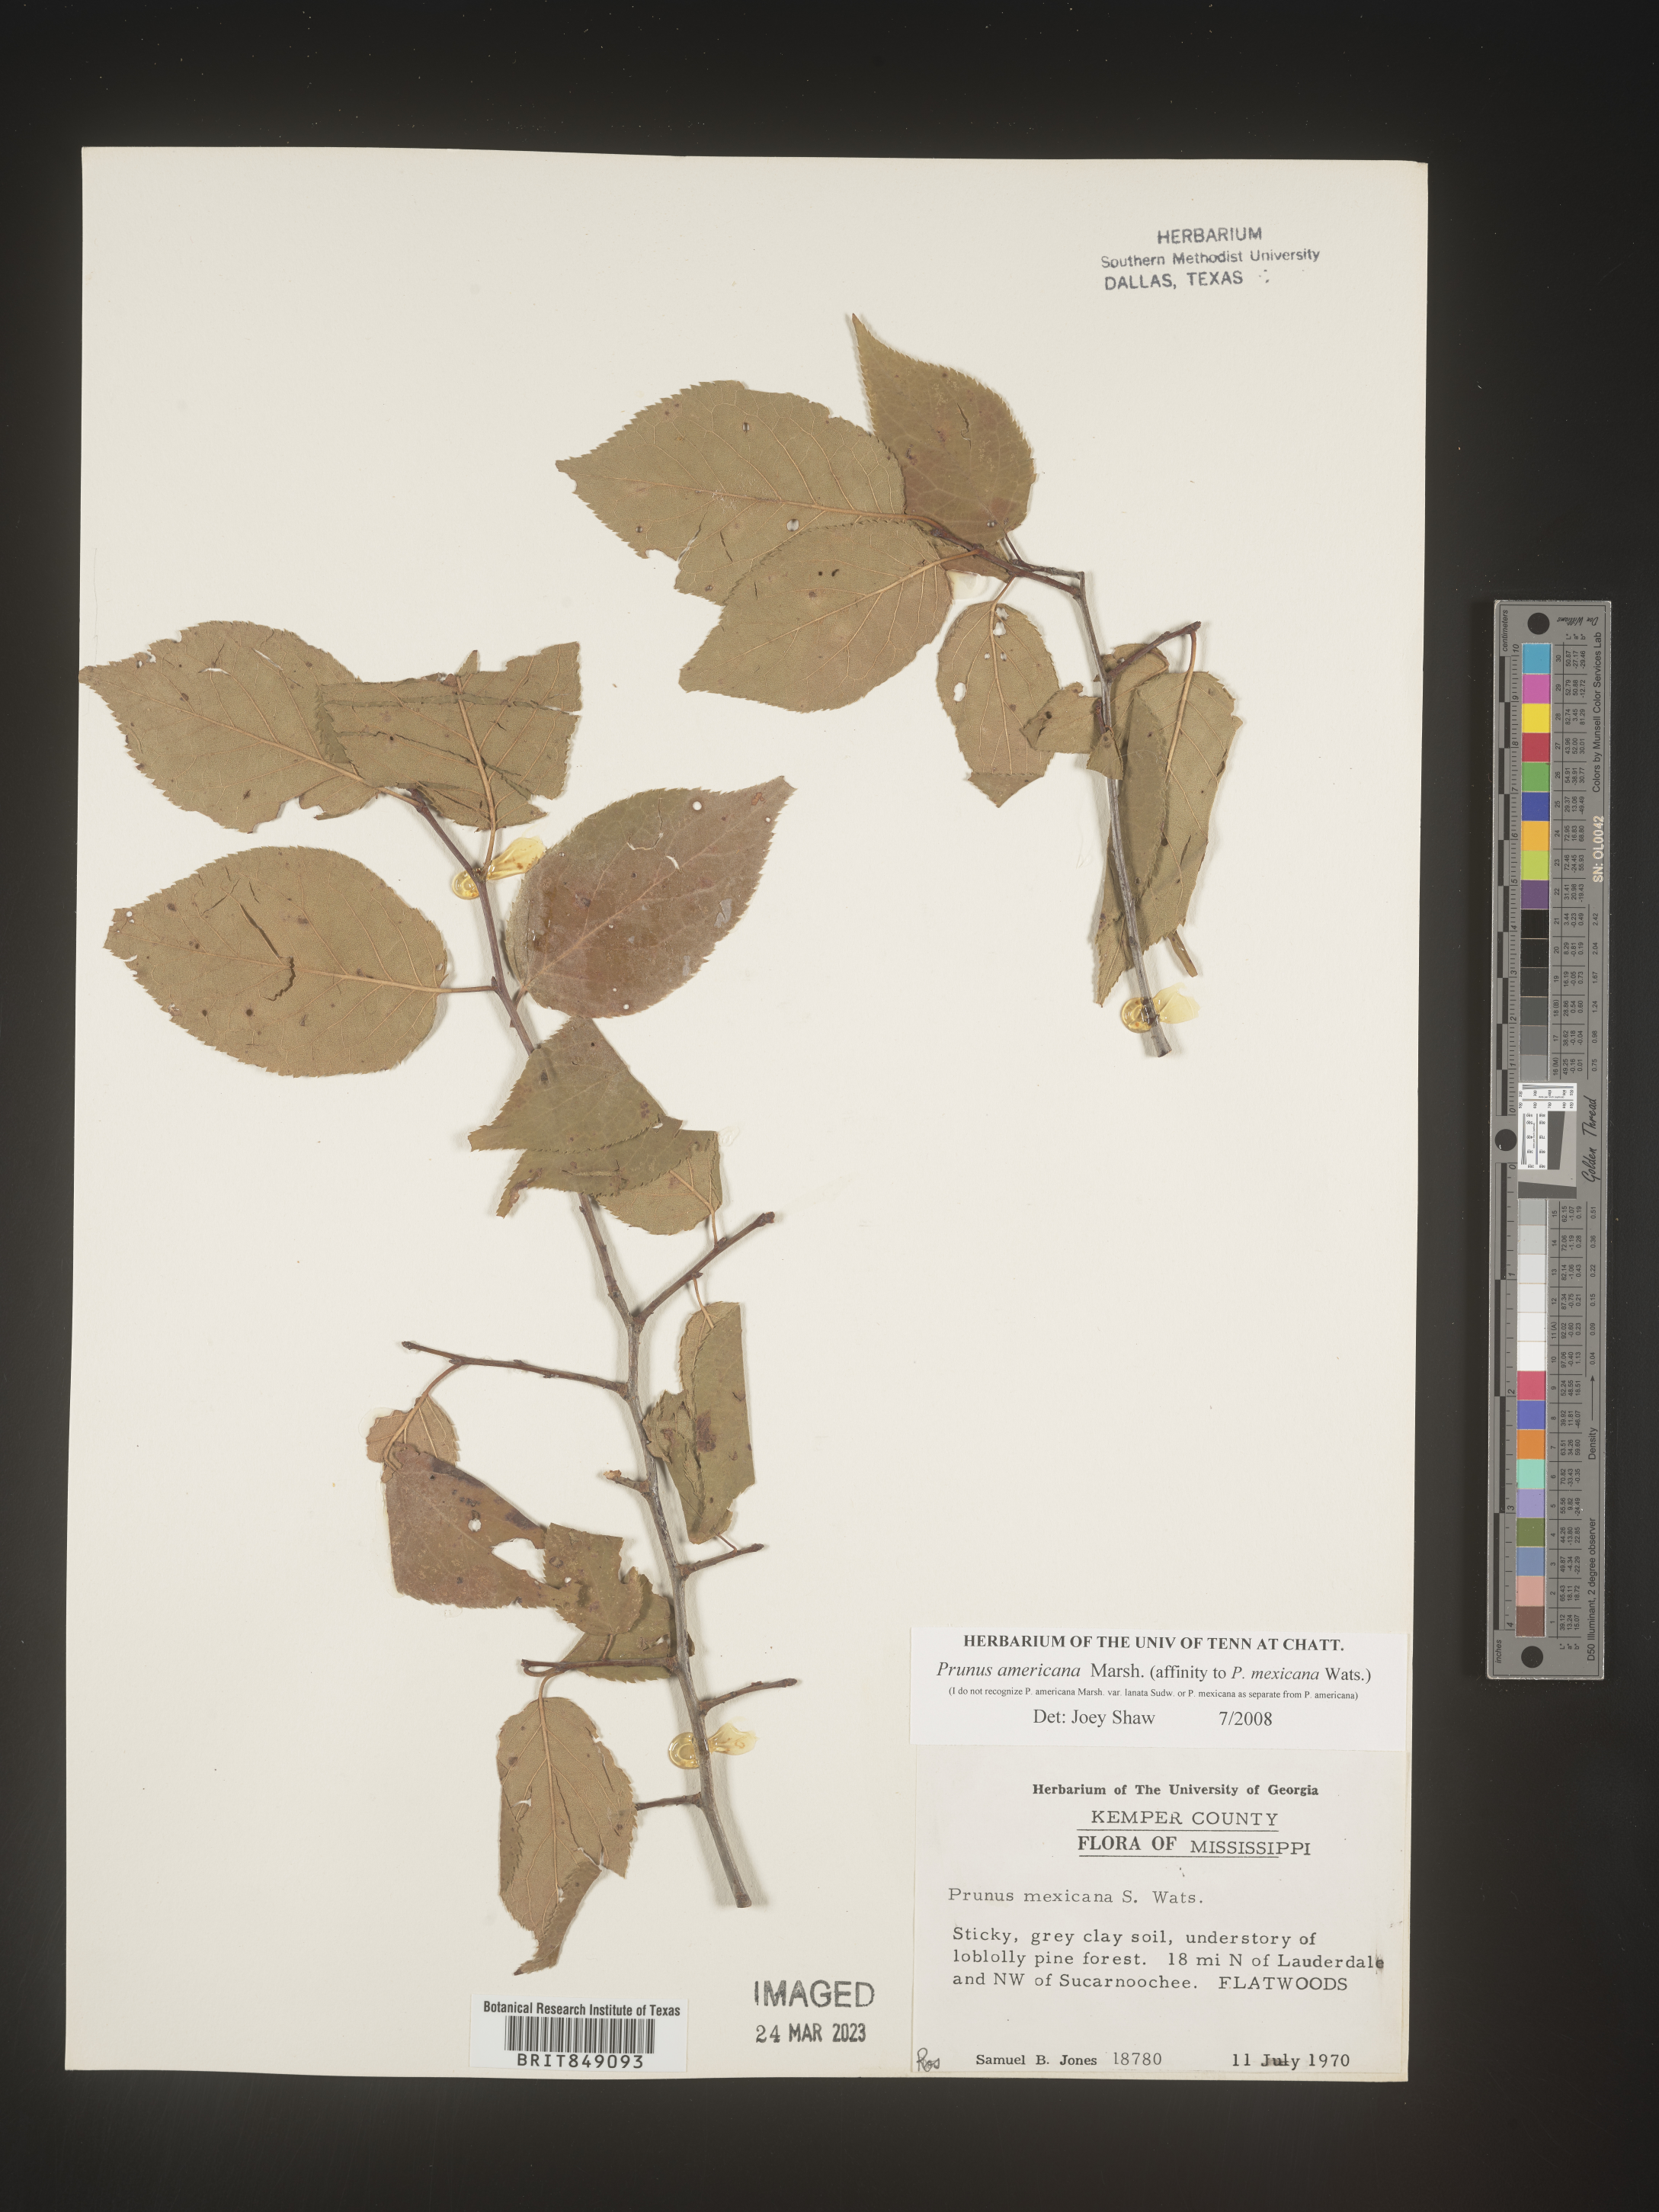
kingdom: Plantae
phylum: Tracheophyta
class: Magnoliopsida
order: Rosales
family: Rosaceae
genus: Prunus
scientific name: Prunus americana
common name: American plum
